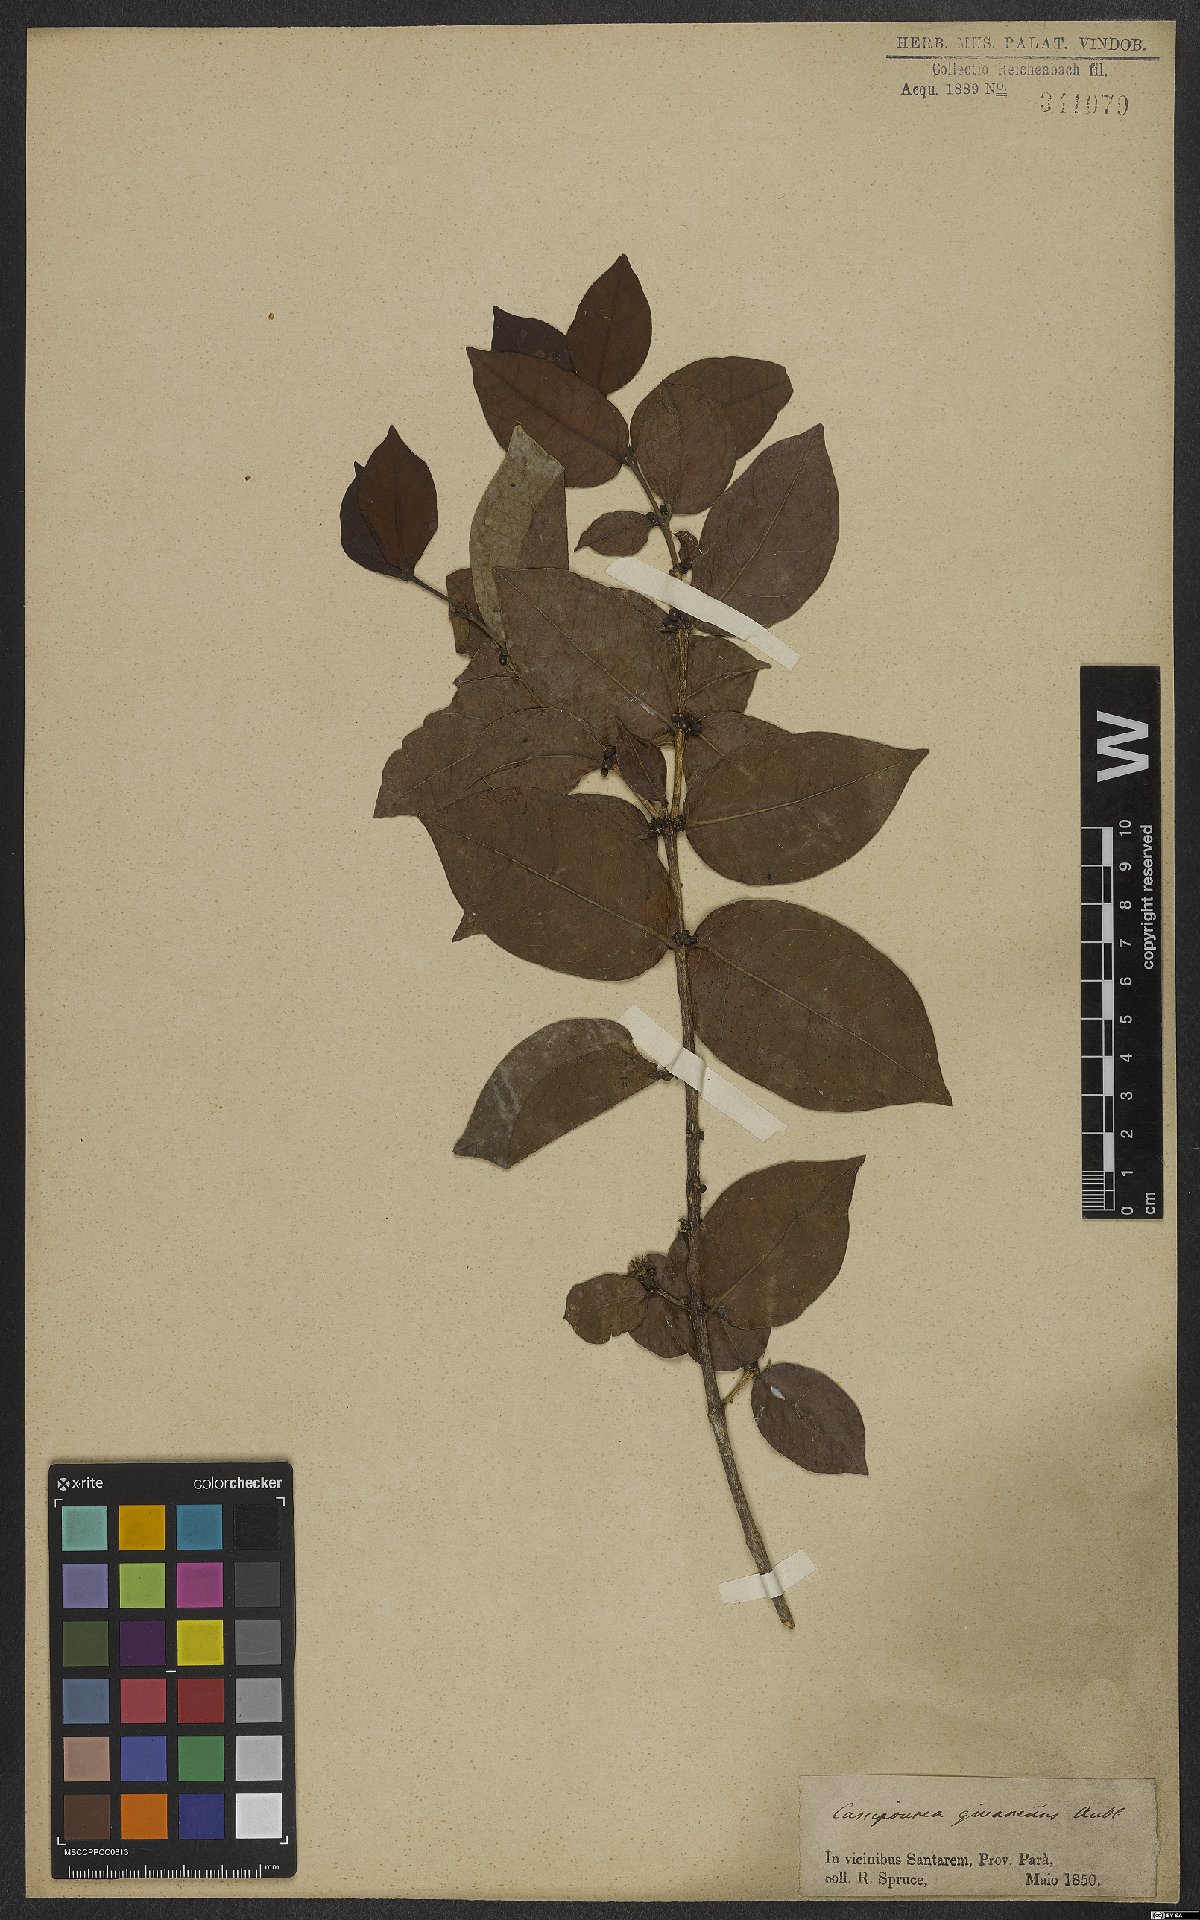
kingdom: Plantae
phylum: Tracheophyta
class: Magnoliopsida
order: Malpighiales
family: Rhizophoraceae
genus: Cassipourea
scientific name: Cassipourea guianensis
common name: Bastard waterwood
